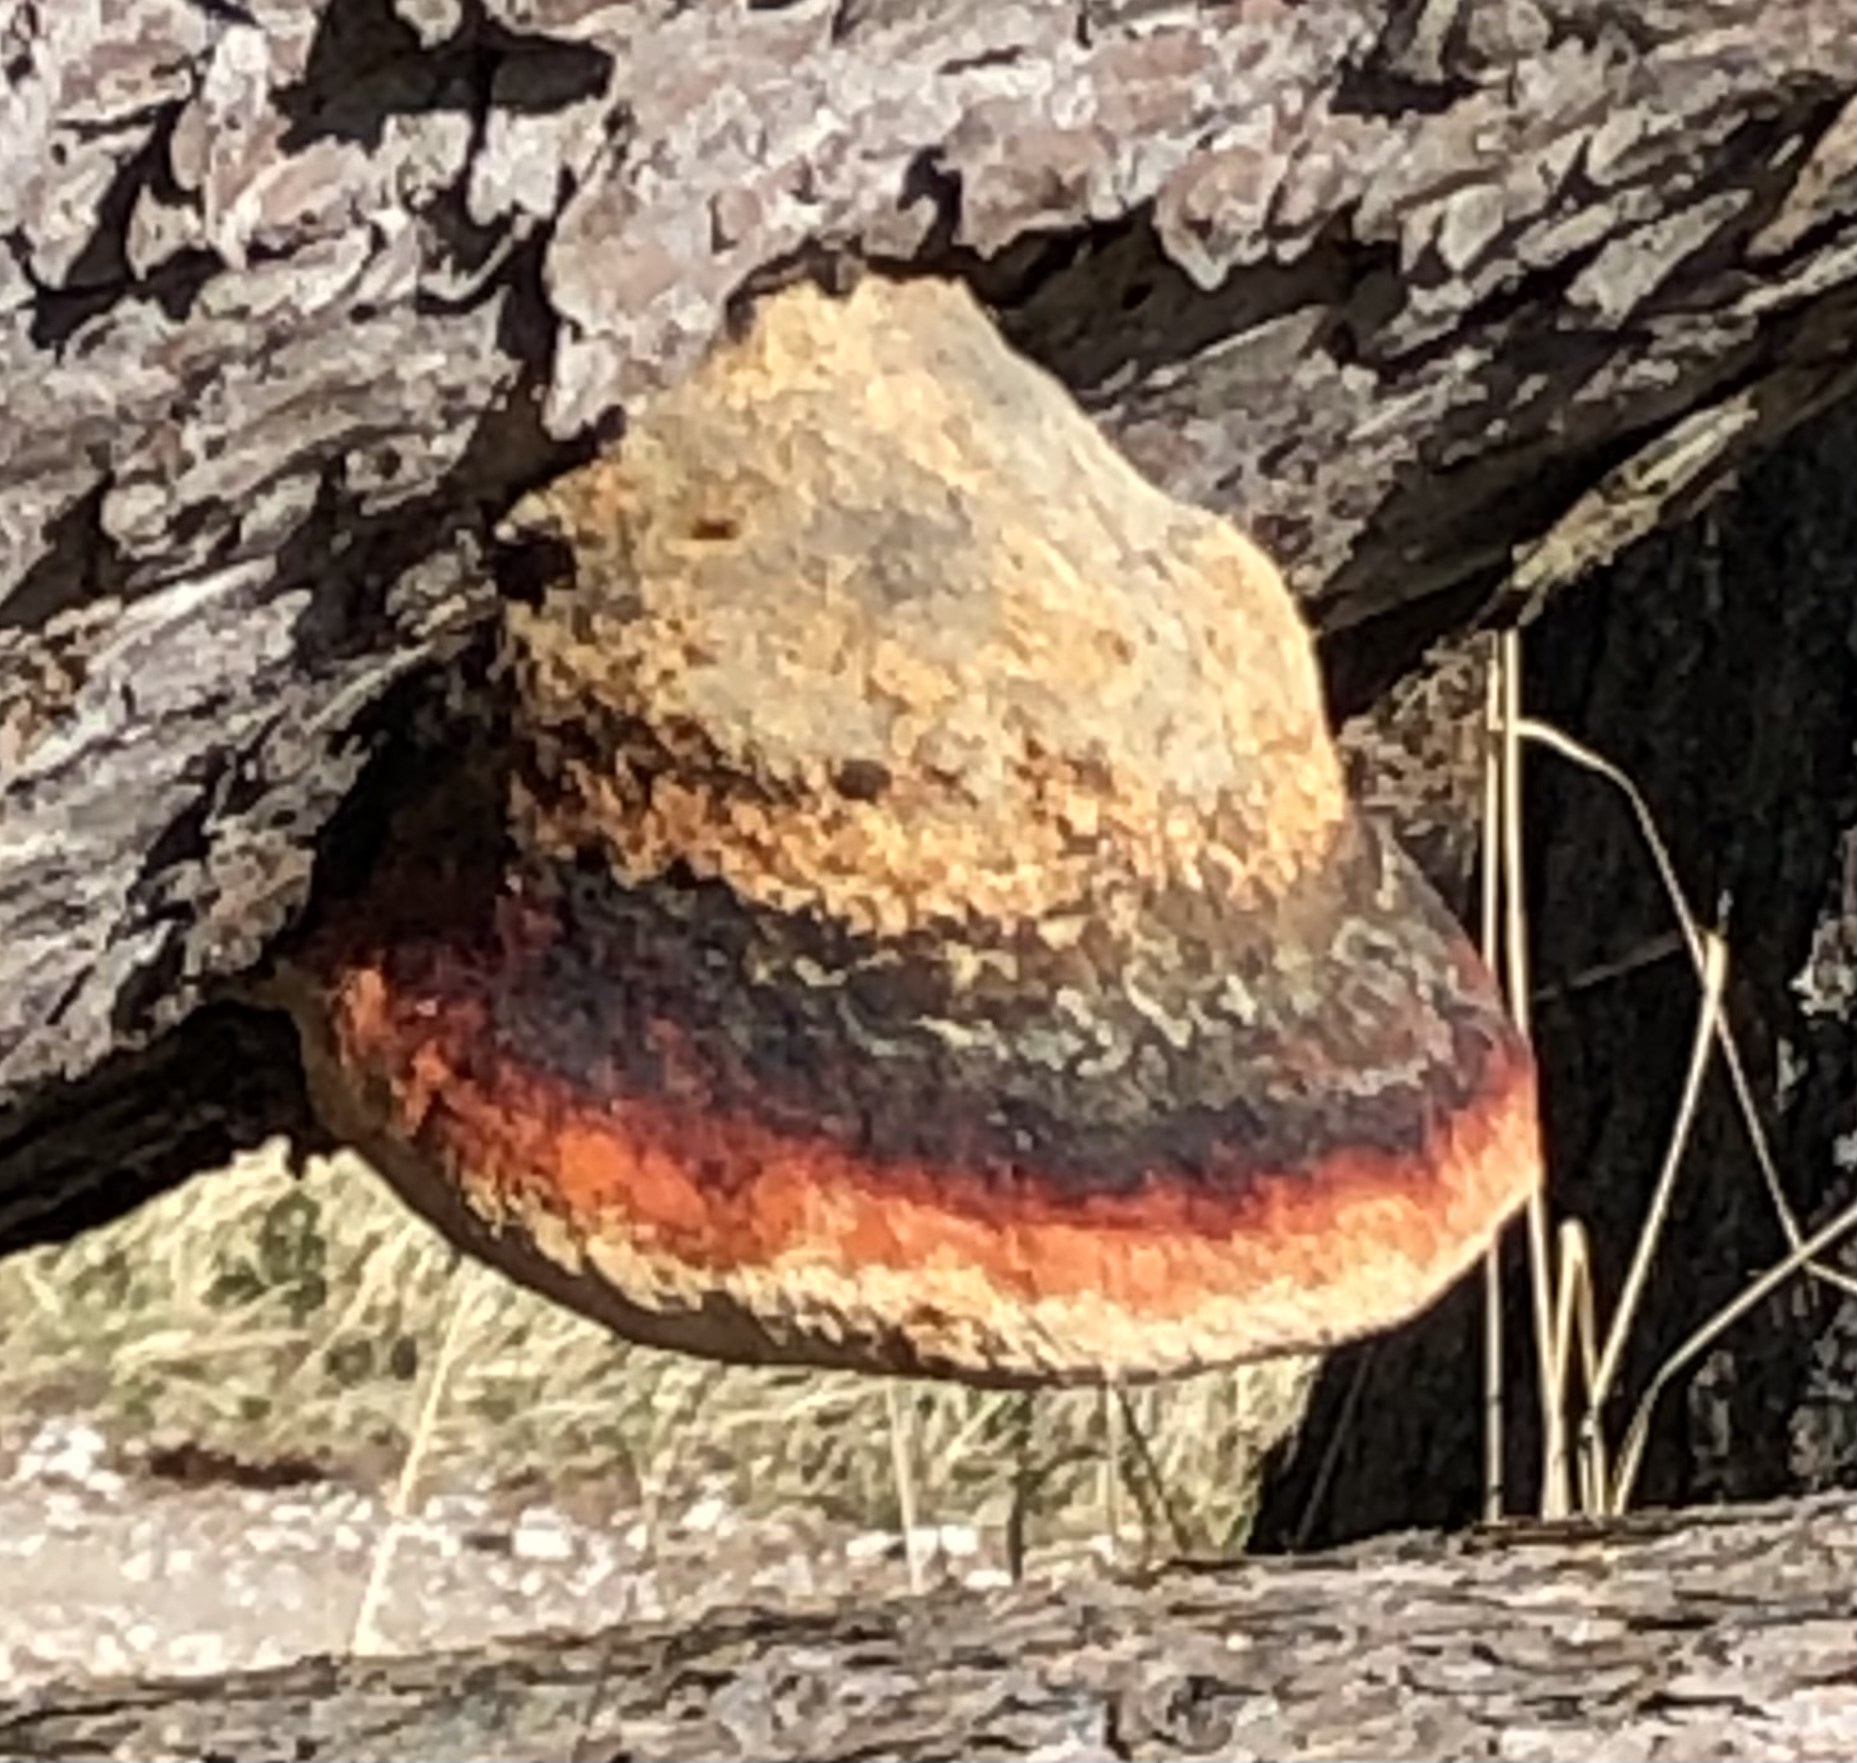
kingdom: Fungi
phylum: Basidiomycota
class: Agaricomycetes
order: Polyporales
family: Fomitopsidaceae
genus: Fomitopsis
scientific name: Fomitopsis pinicola
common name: randbæltet hovporesvamp
